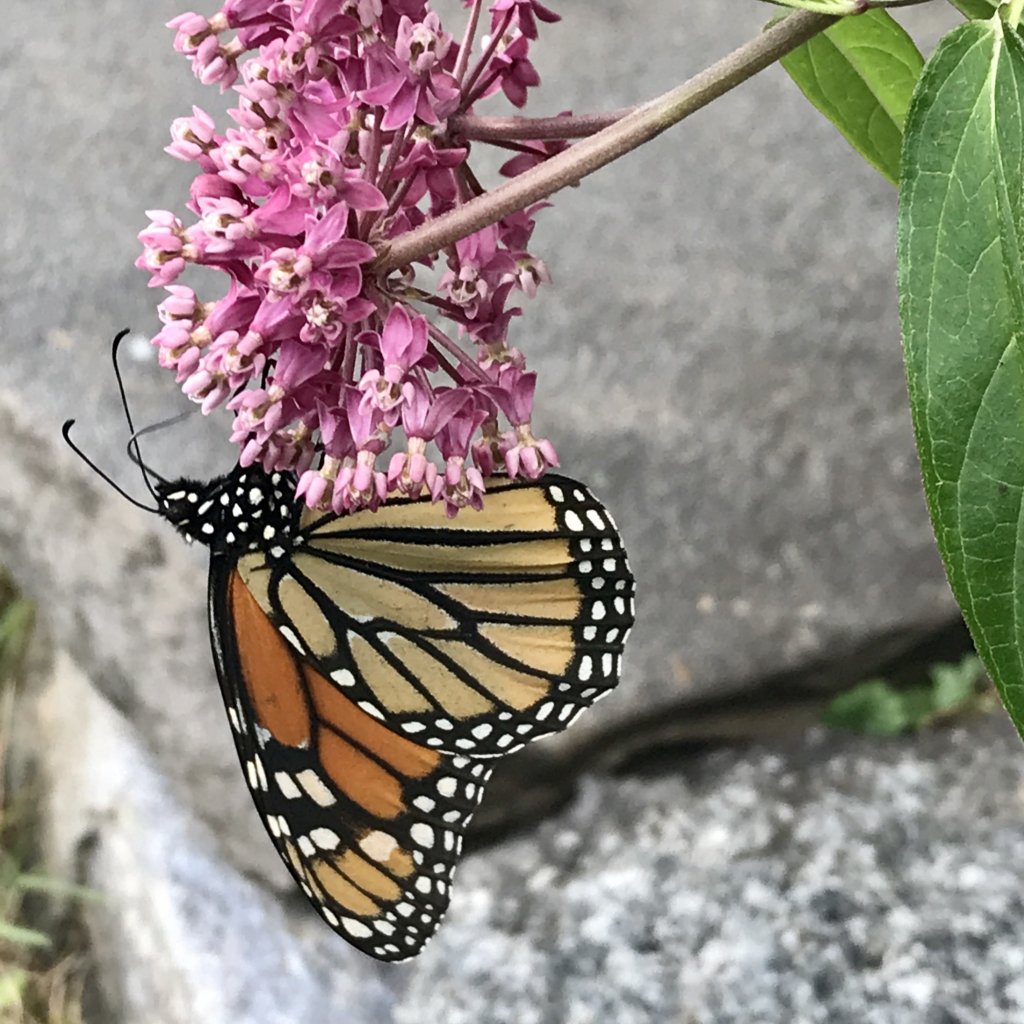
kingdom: Animalia
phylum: Arthropoda
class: Insecta
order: Lepidoptera
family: Nymphalidae
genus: Danaus
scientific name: Danaus plexippus
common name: Monarch
